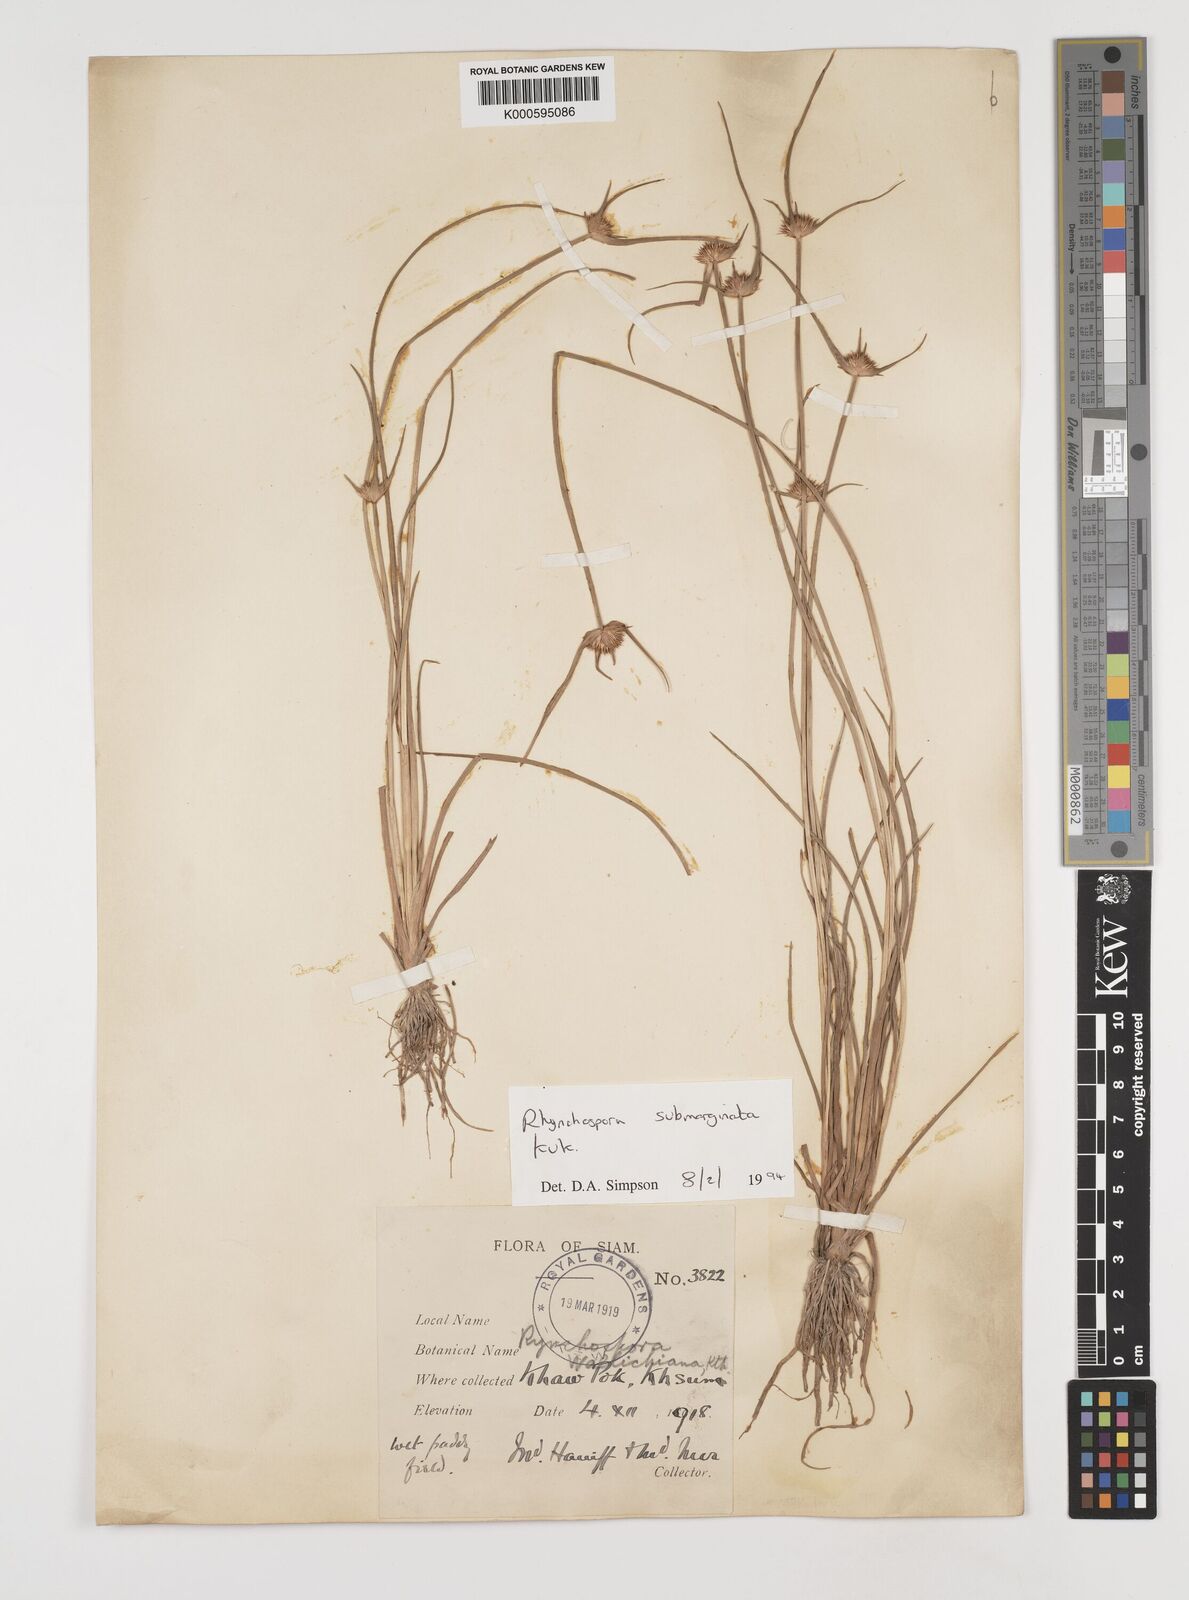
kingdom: Plantae
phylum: Tracheophyta
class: Liliopsida
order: Poales
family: Cyperaceae
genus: Rhynchospora
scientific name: Rhynchospora
